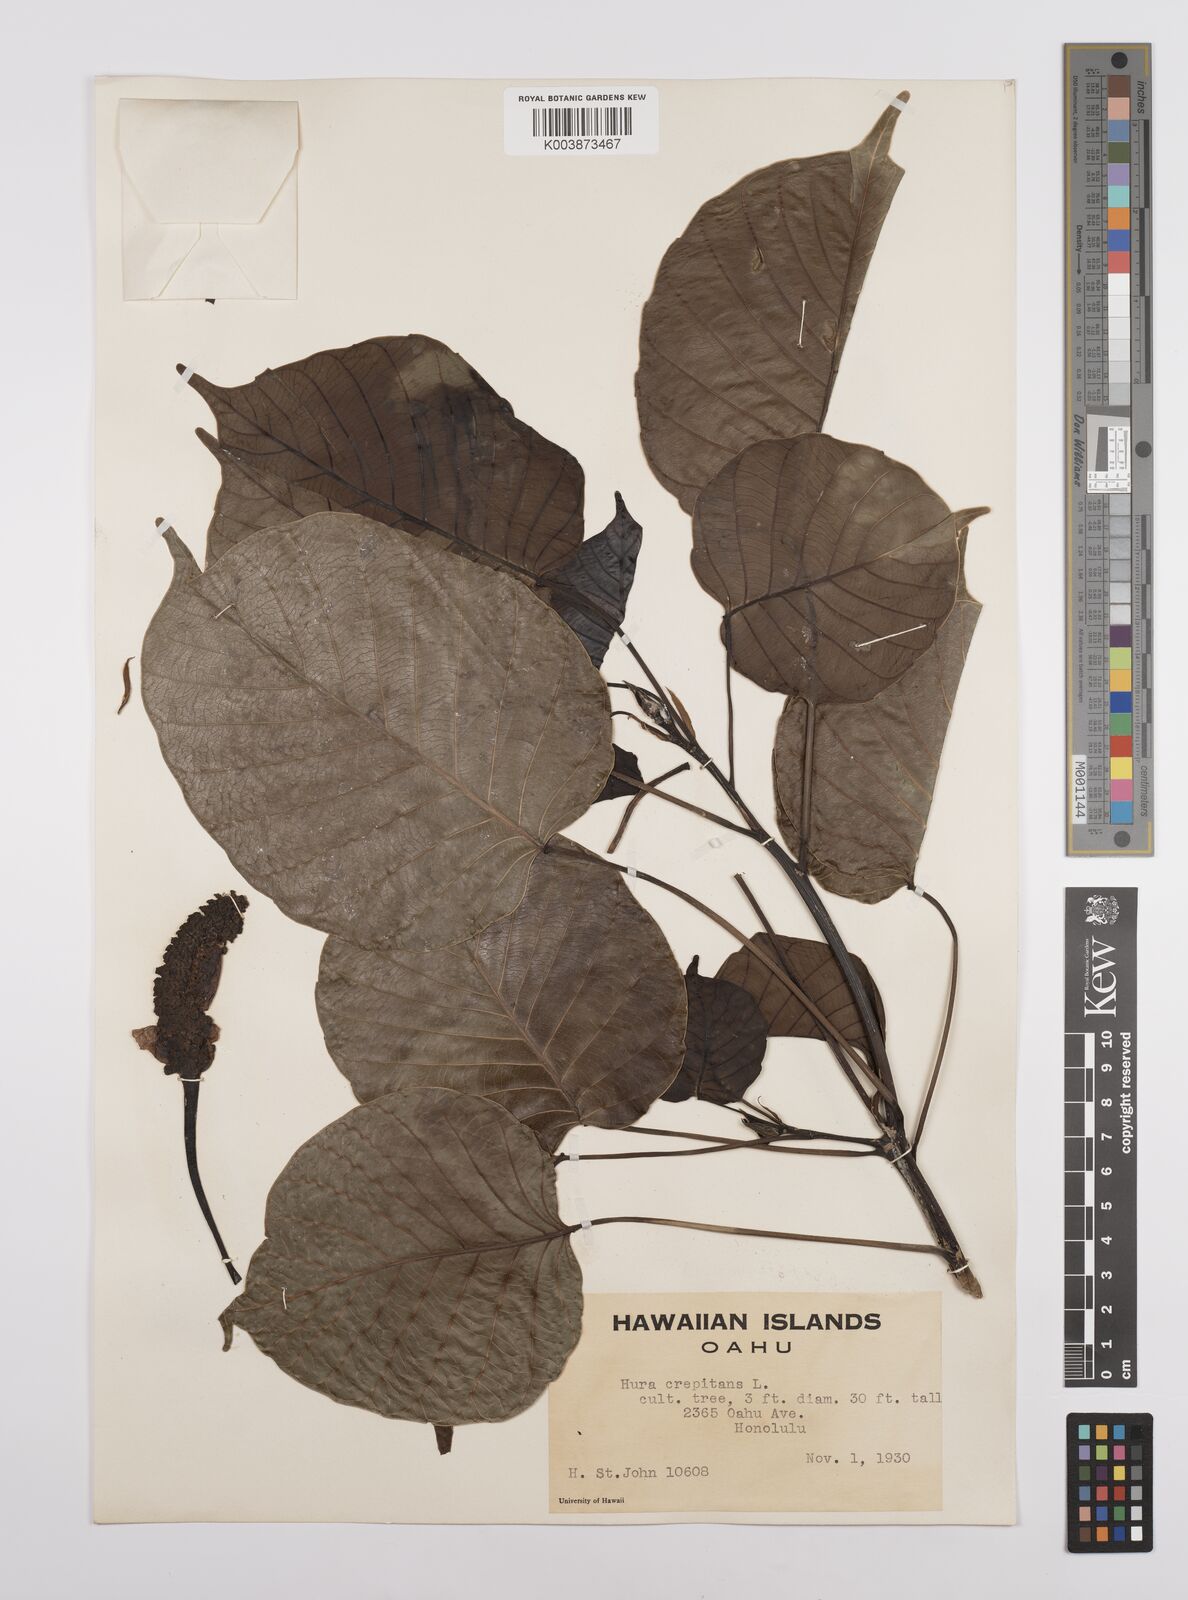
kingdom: Plantae
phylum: Tracheophyta
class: Magnoliopsida
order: Malpighiales
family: Euphorbiaceae
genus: Hura
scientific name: Hura crepitans
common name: Sandboxtree
